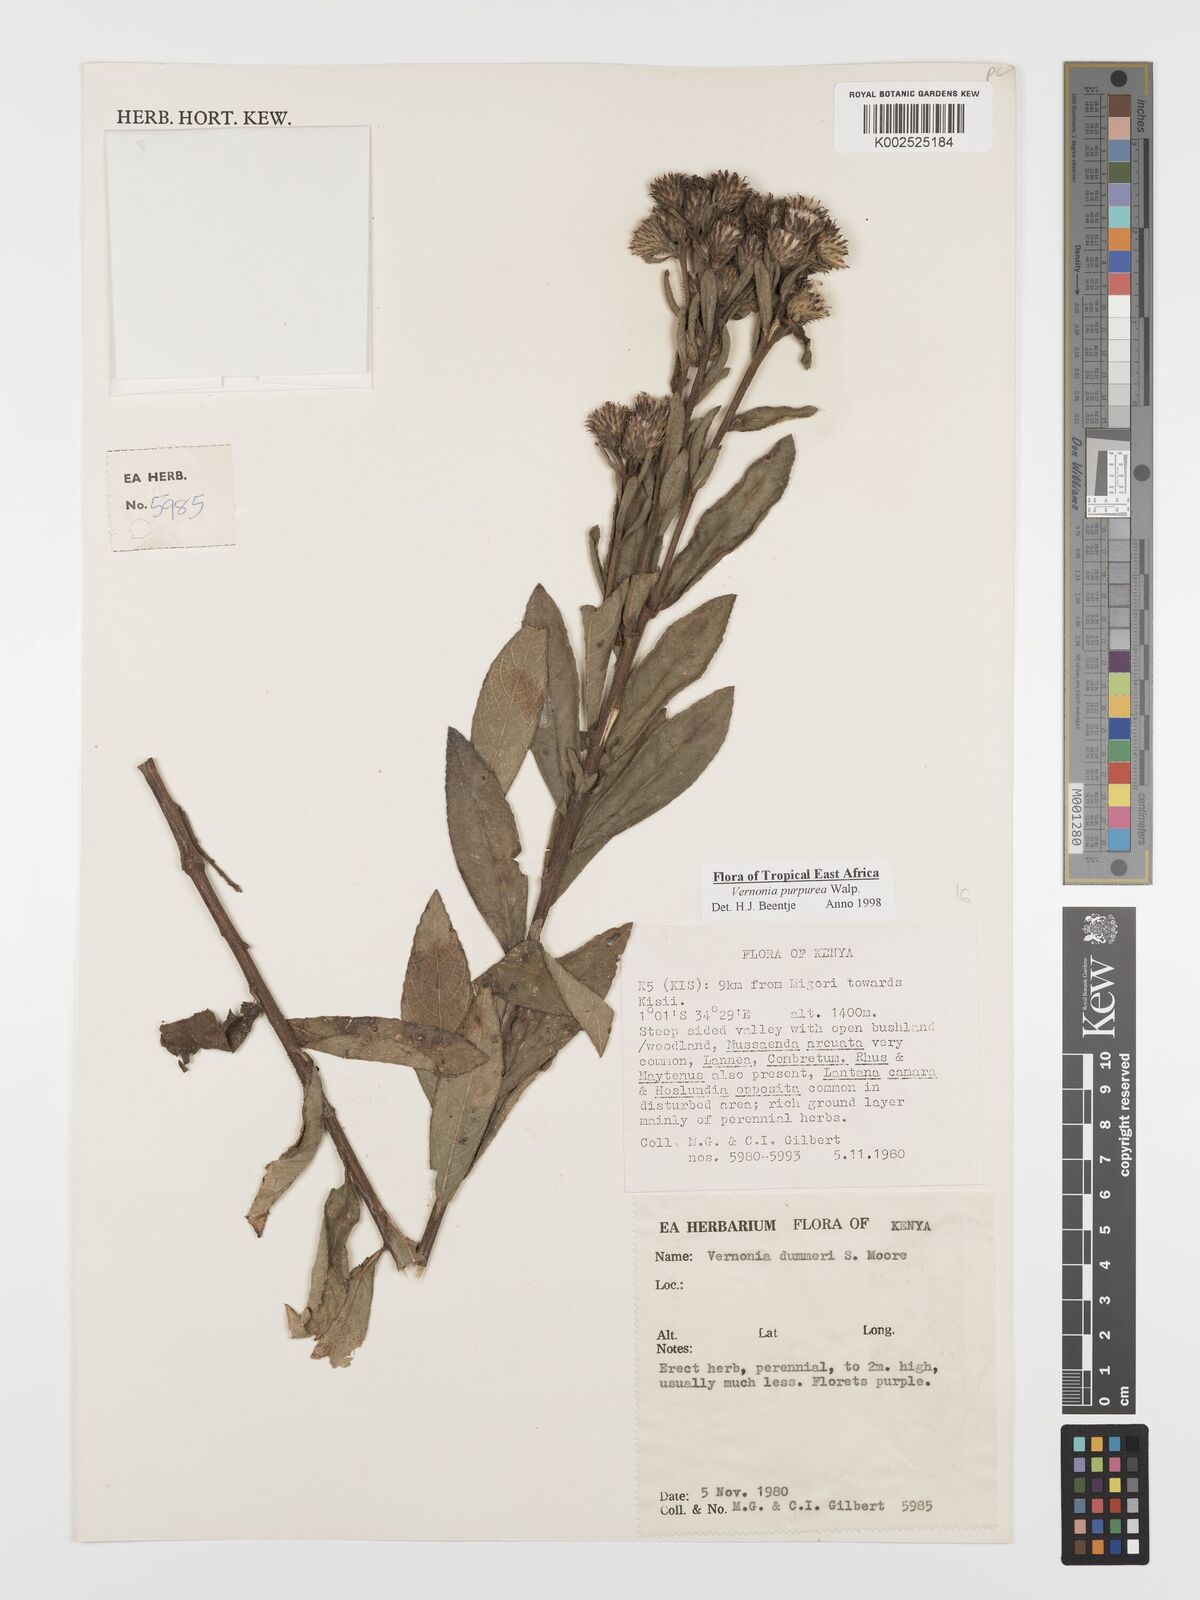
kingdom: Plantae
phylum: Tracheophyta
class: Magnoliopsida
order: Asterales
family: Asteraceae
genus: Nothovernonia
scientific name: Nothovernonia purpurea
